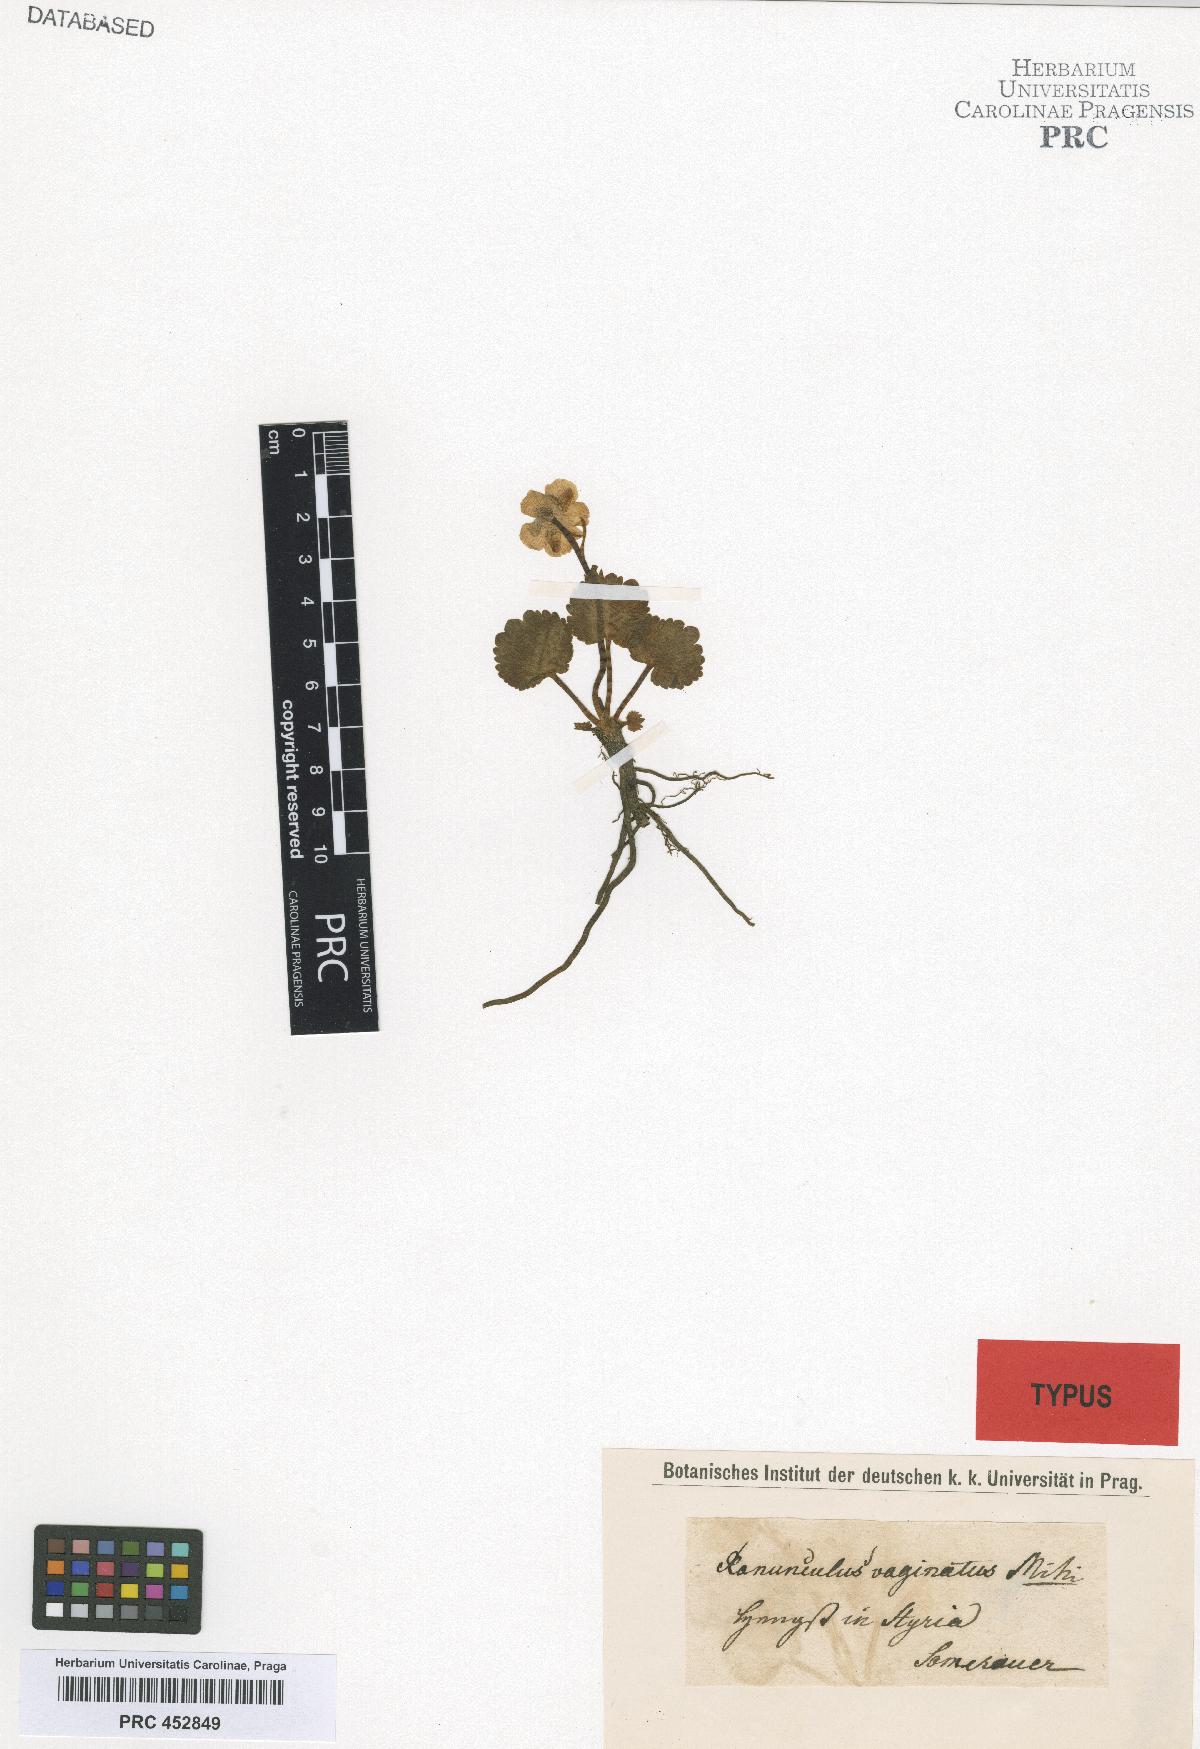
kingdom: Plantae
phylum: Tracheophyta
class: Magnoliopsida
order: Ranunculales
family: Ranunculaceae
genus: Ranunculus
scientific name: Ranunculus crenatus
